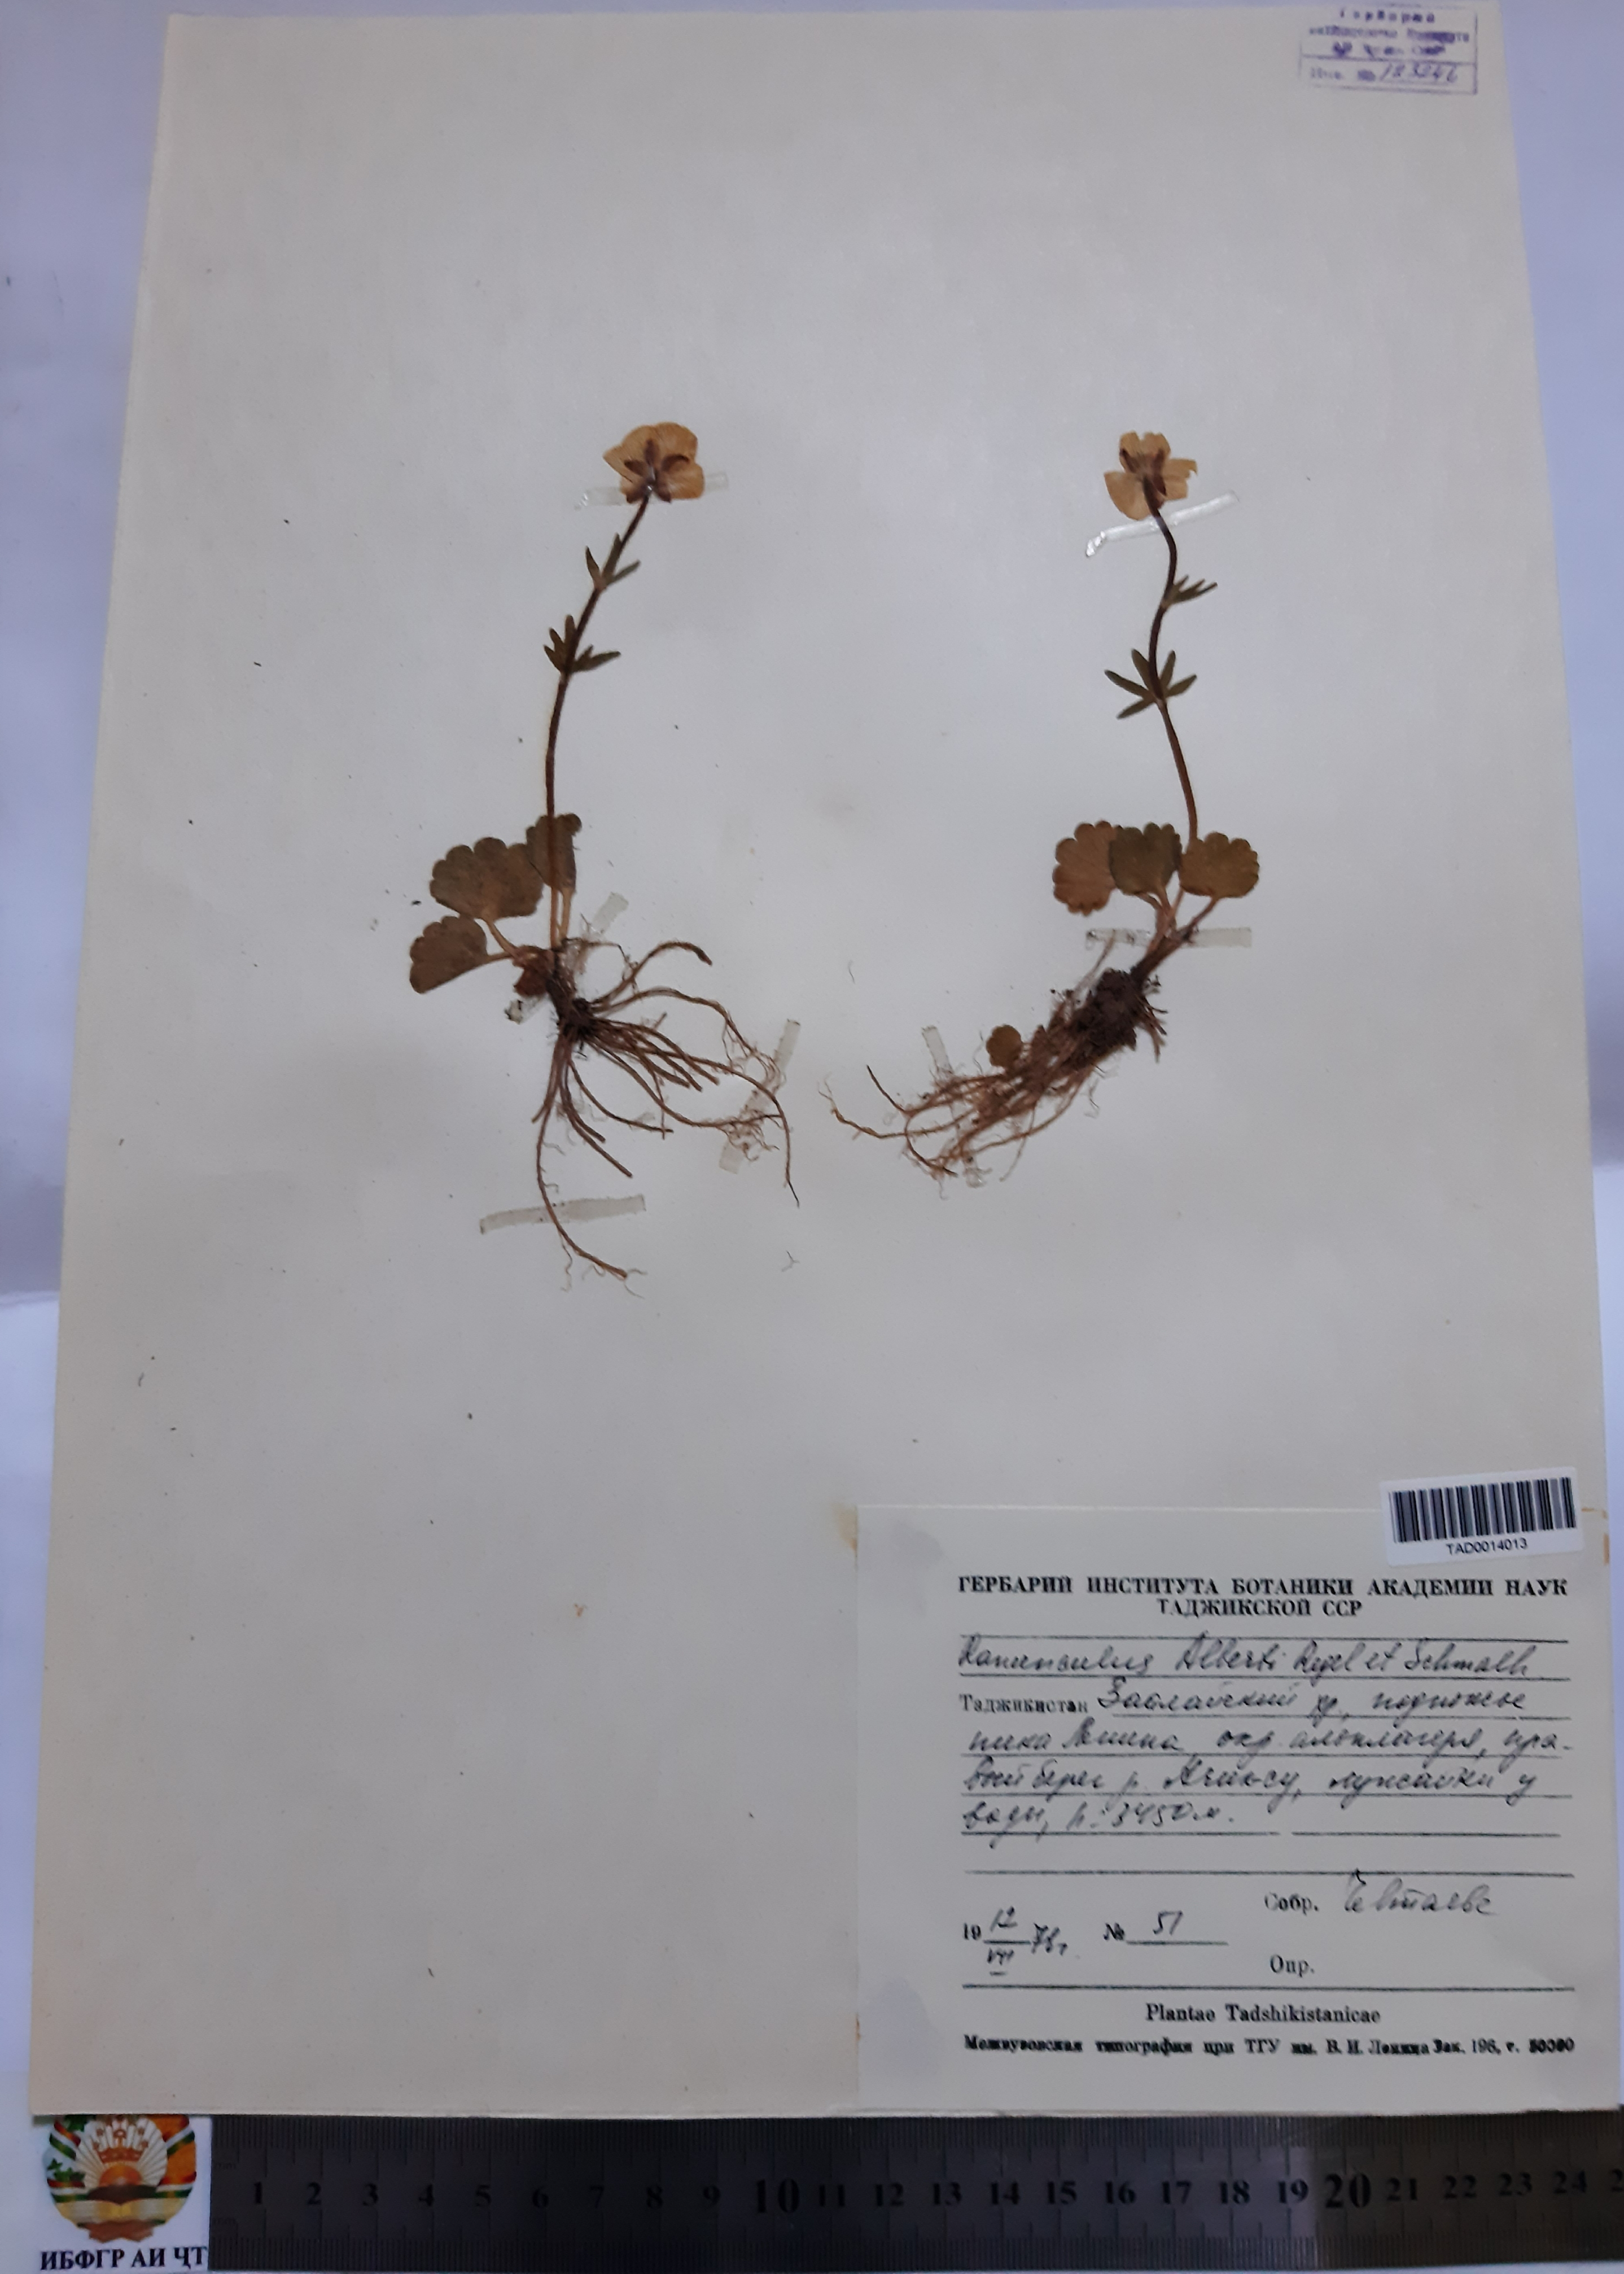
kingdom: Plantae
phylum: Tracheophyta
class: Magnoliopsida
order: Ranunculales
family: Ranunculaceae
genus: Ranunculus
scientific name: Ranunculus alberti
